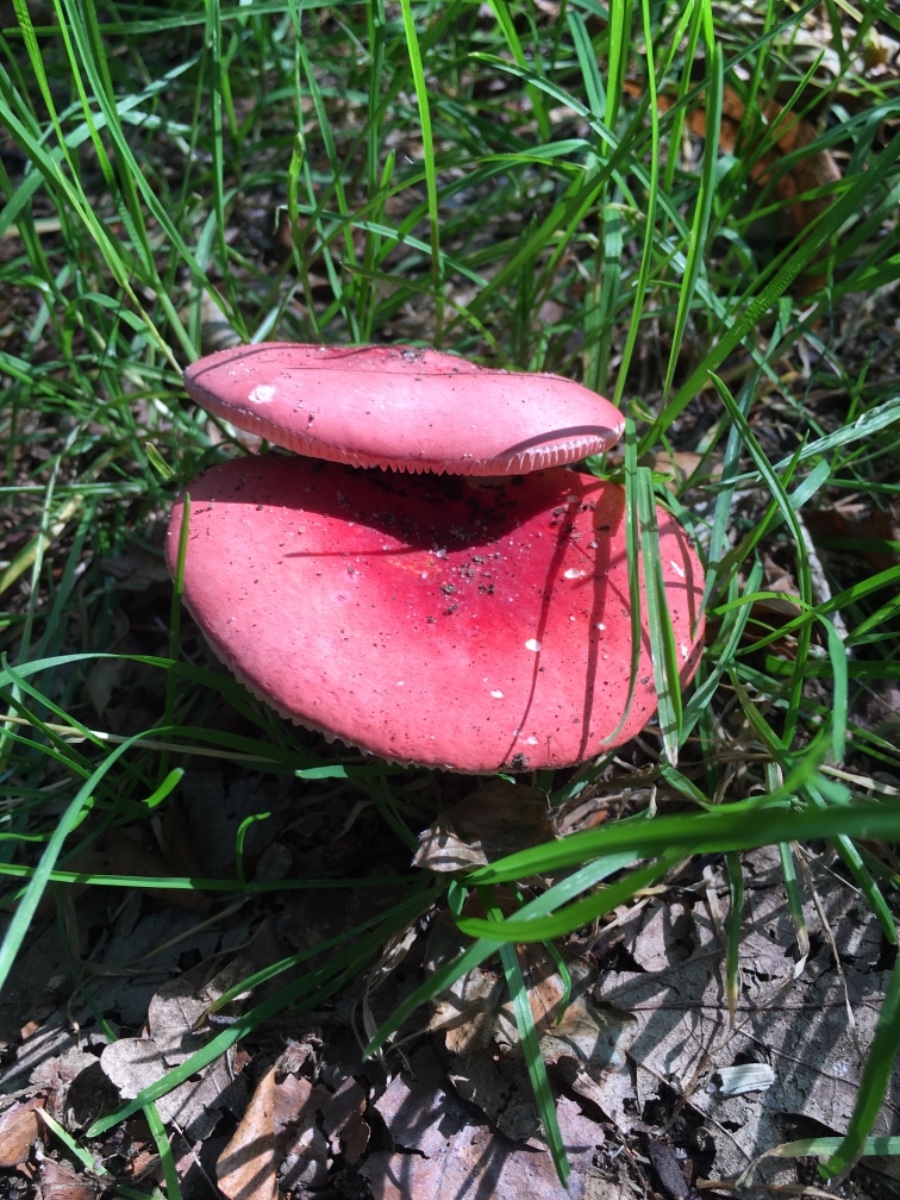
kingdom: Fungi
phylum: Basidiomycota
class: Agaricomycetes
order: Russulales
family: Russulaceae
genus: Russula
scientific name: Russula rosea
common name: fastkødet skørhat
